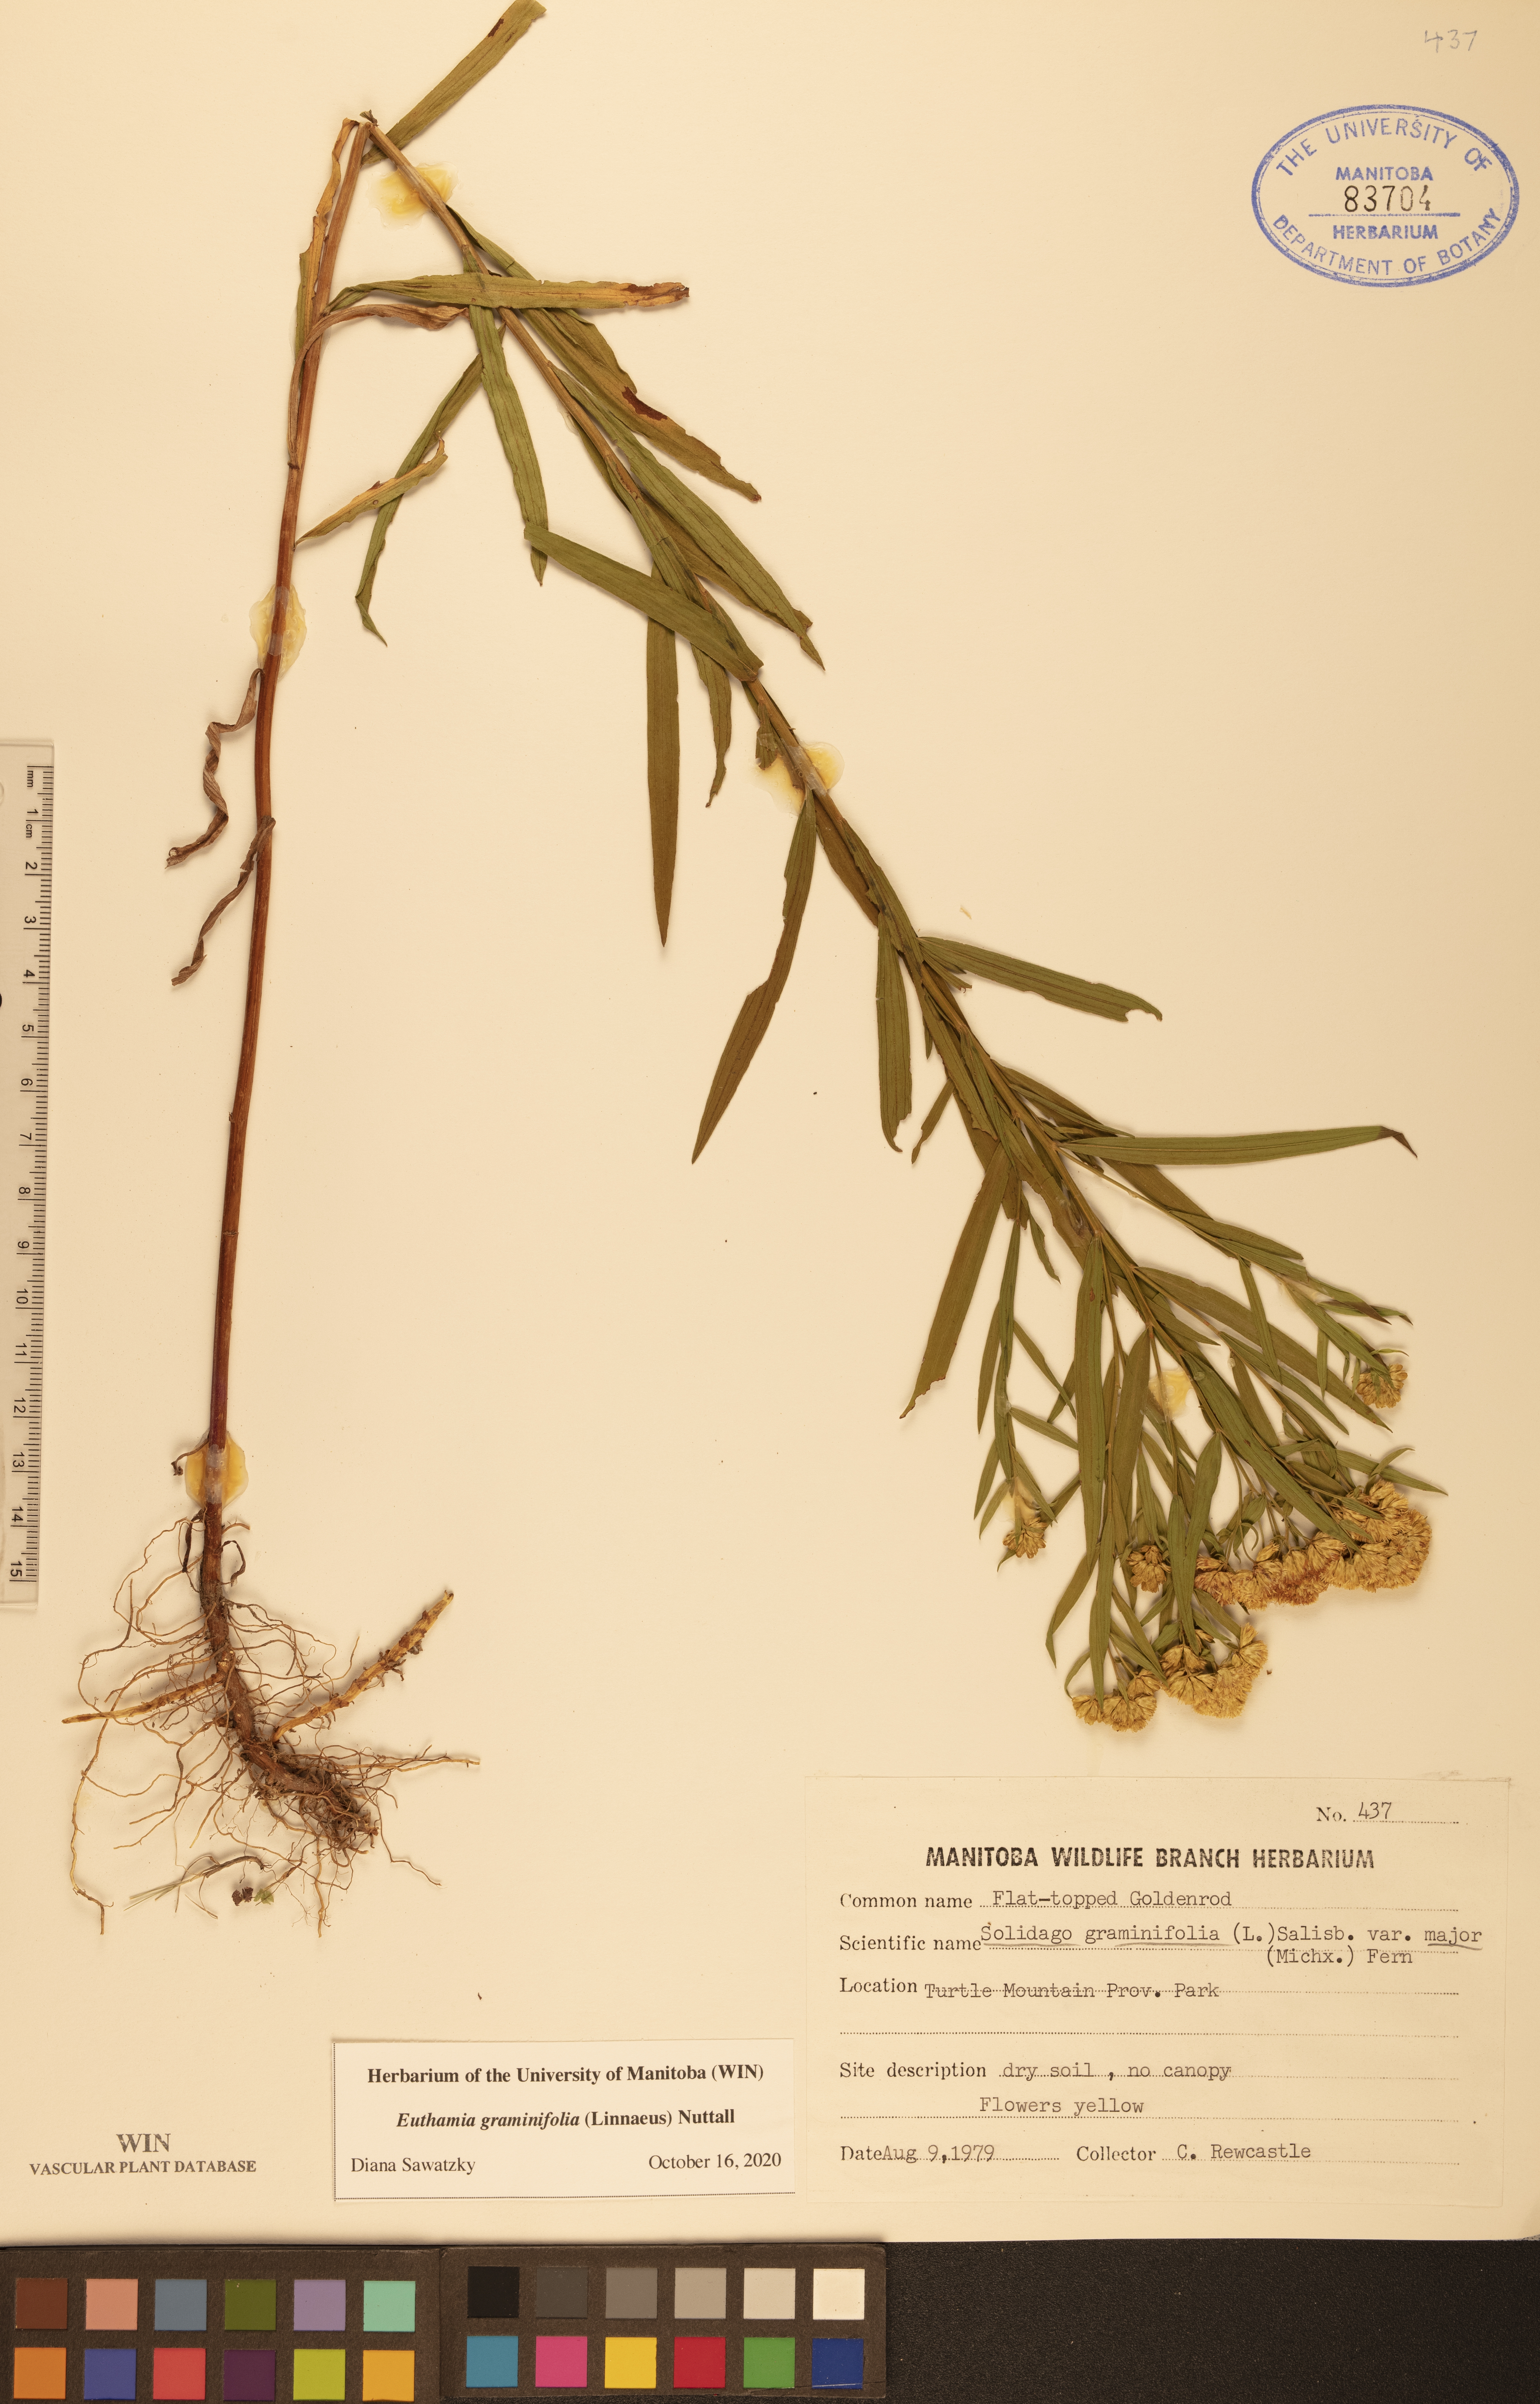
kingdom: Plantae
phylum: Tracheophyta
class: Magnoliopsida
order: Asterales
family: Asteraceae
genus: Euthamia
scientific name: Euthamia graminifolia
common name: Common goldentop
